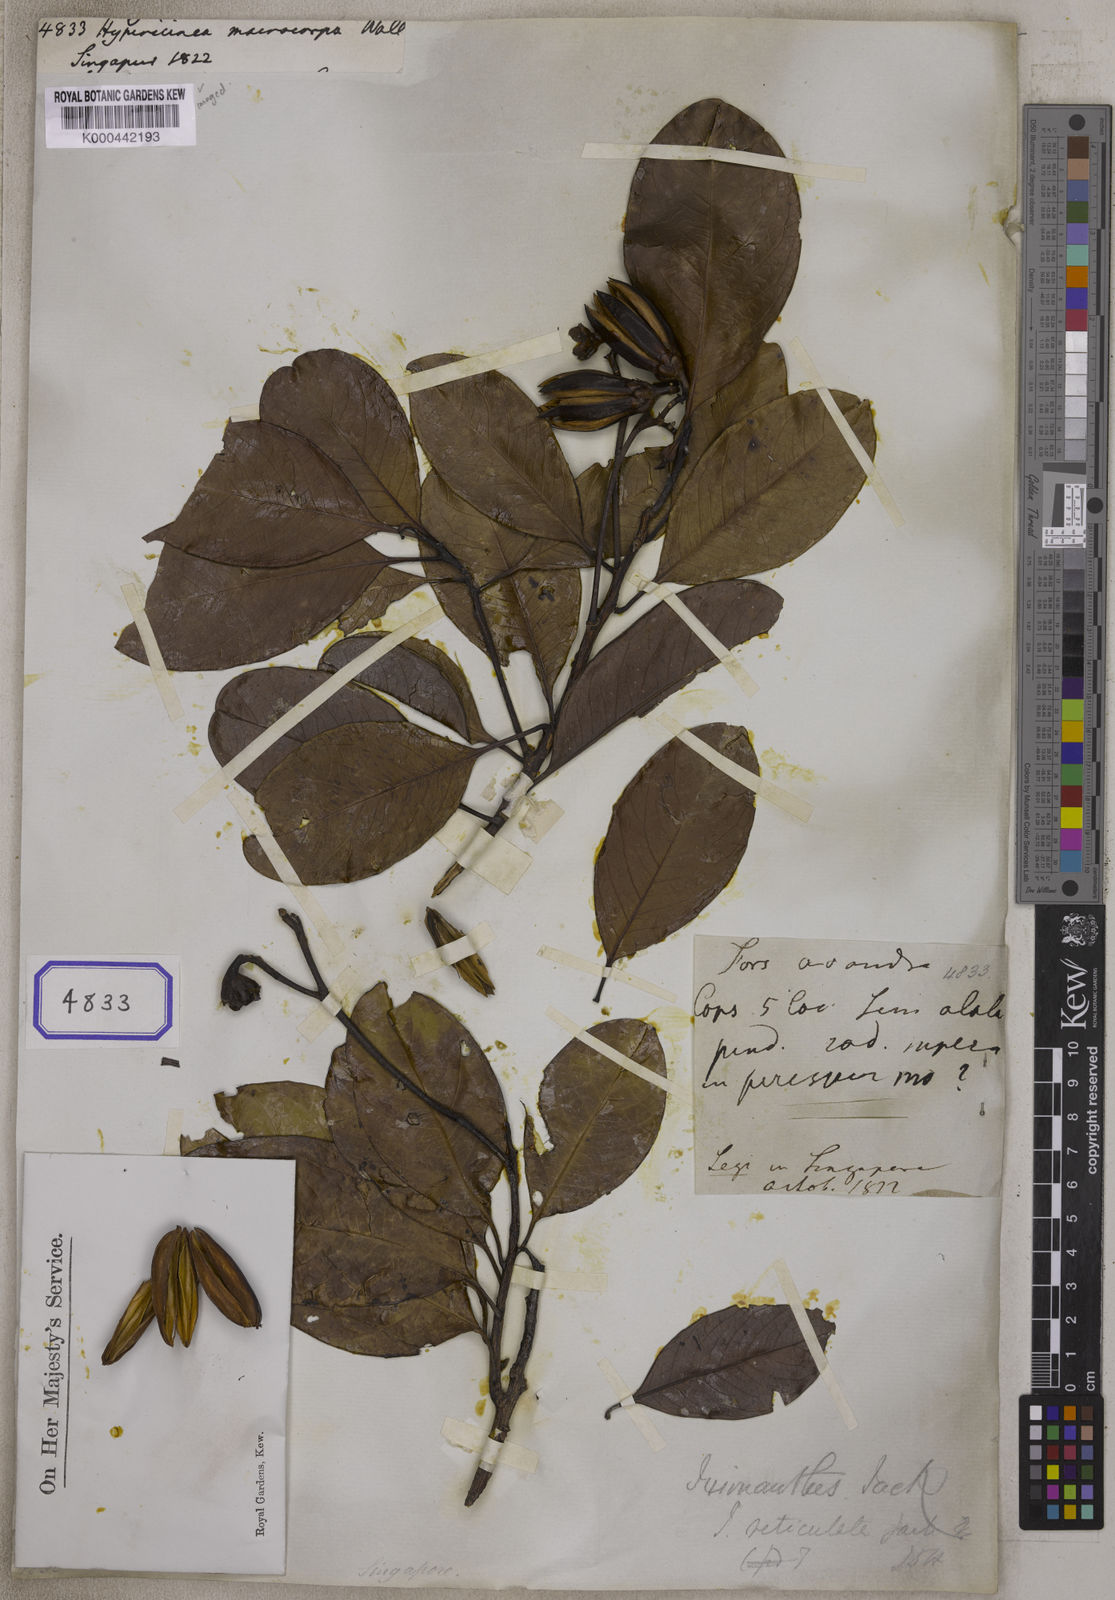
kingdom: Plantae
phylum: Tracheophyta
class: Magnoliopsida
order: Malpighiales
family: Ixonanthaceae
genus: Ixonanthes
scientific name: Ixonanthes reticulata
